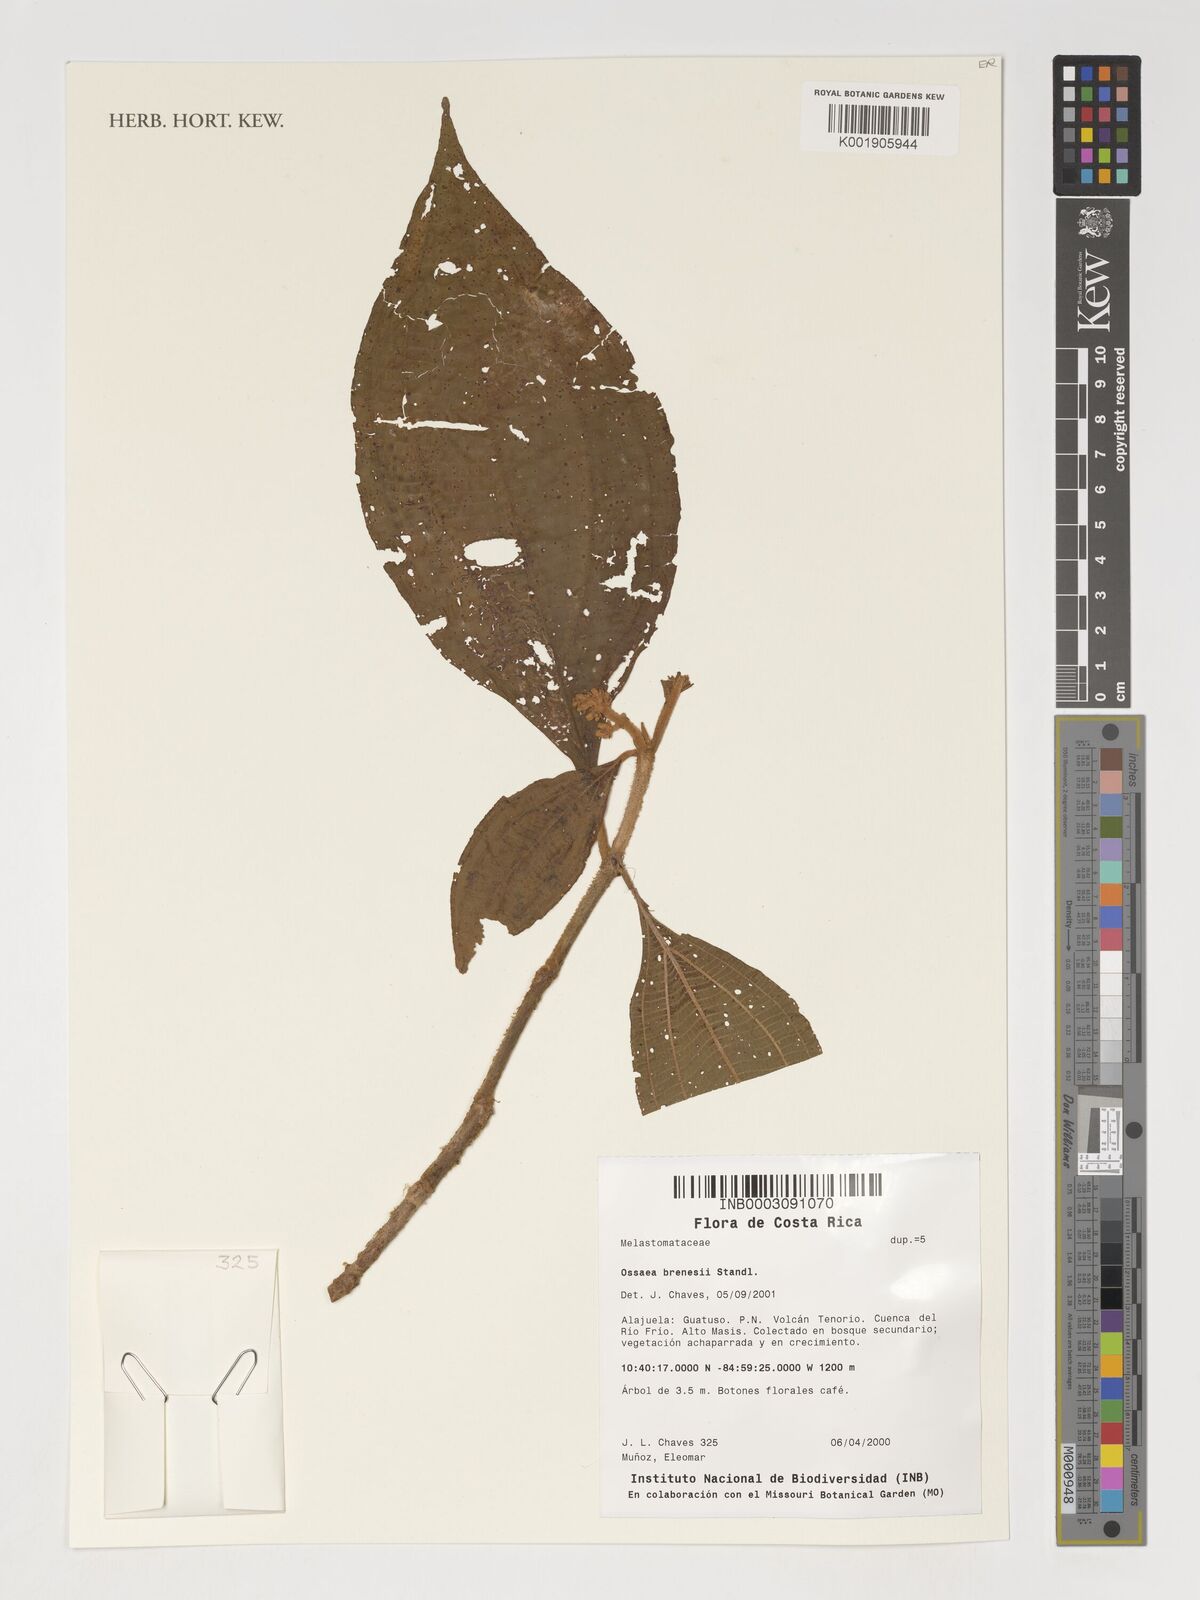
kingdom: Plantae
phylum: Tracheophyta
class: Magnoliopsida
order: Myrtales
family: Melastomataceae
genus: Miconia
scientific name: Miconia albertobrenesii
